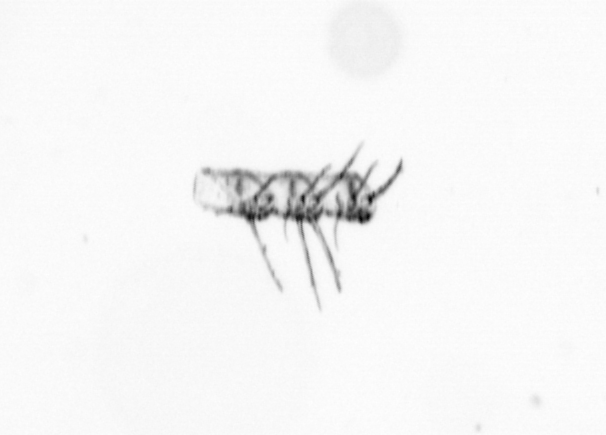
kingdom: Chromista
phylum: Ochrophyta
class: Bacillariophyceae
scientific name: Bacillariophyceae
